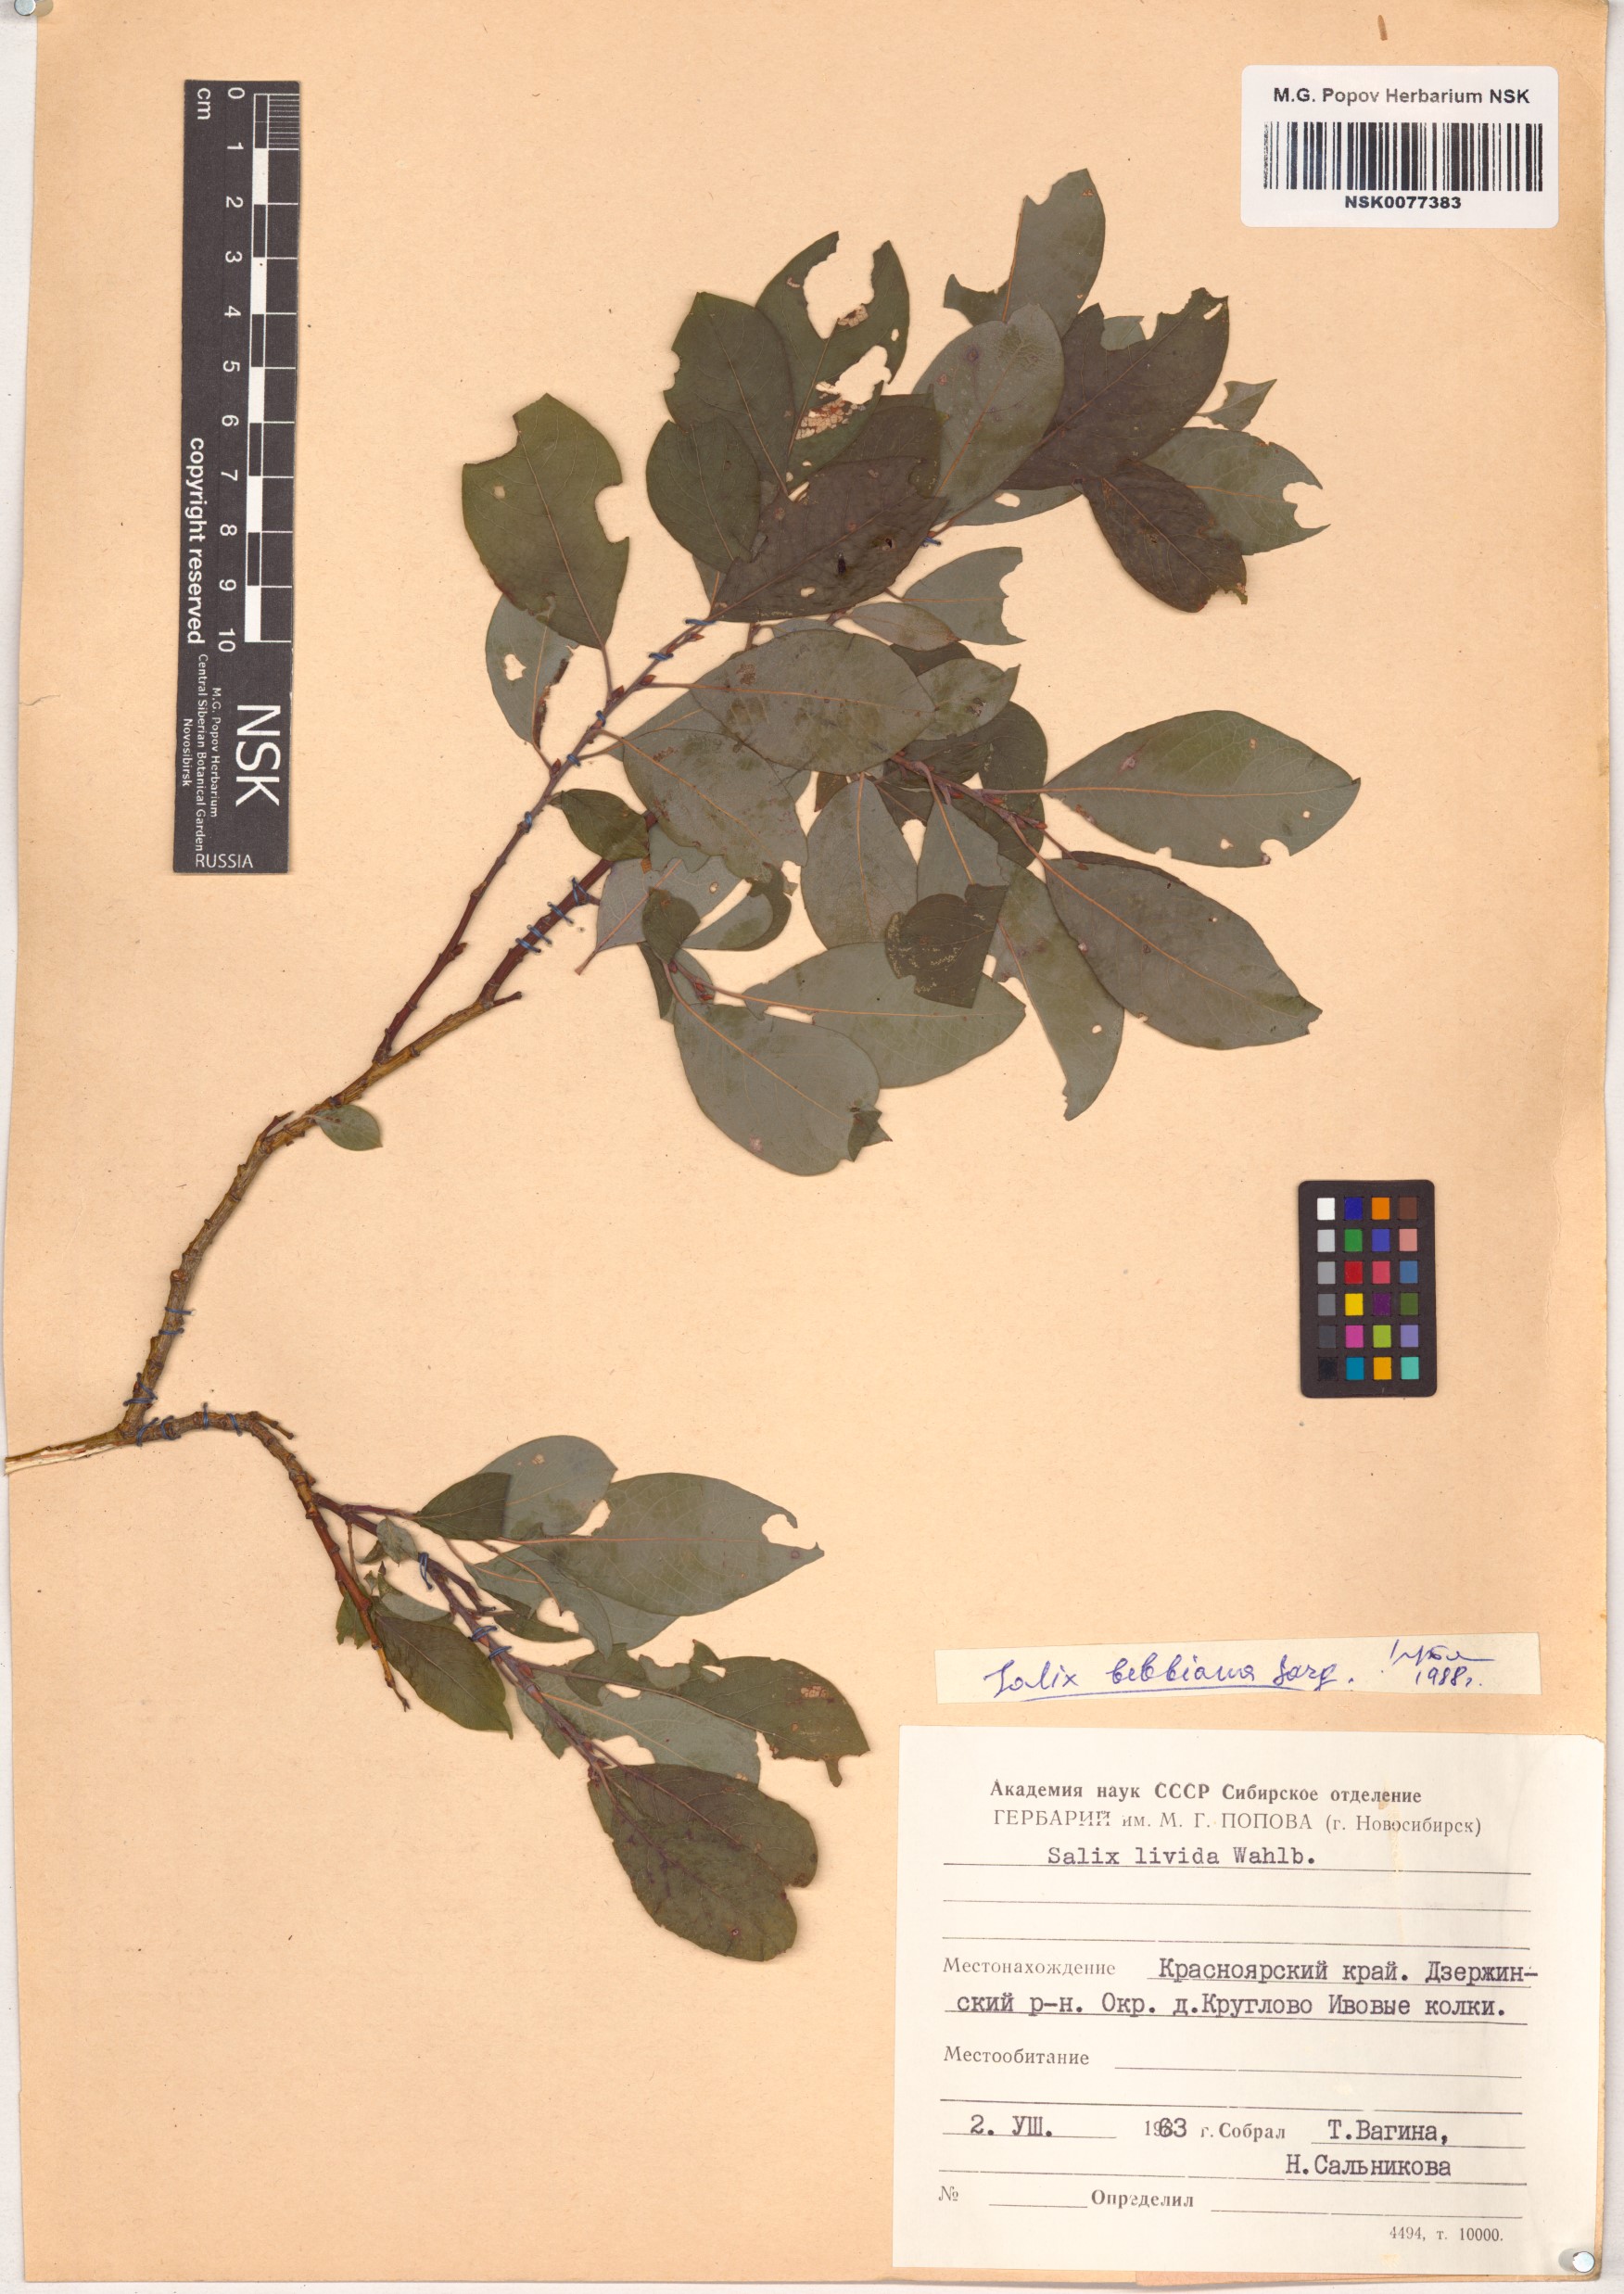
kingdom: Plantae
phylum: Tracheophyta
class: Magnoliopsida
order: Malpighiales
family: Salicaceae
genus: Salix
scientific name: Salix bebbiana
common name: Bebb's willow
